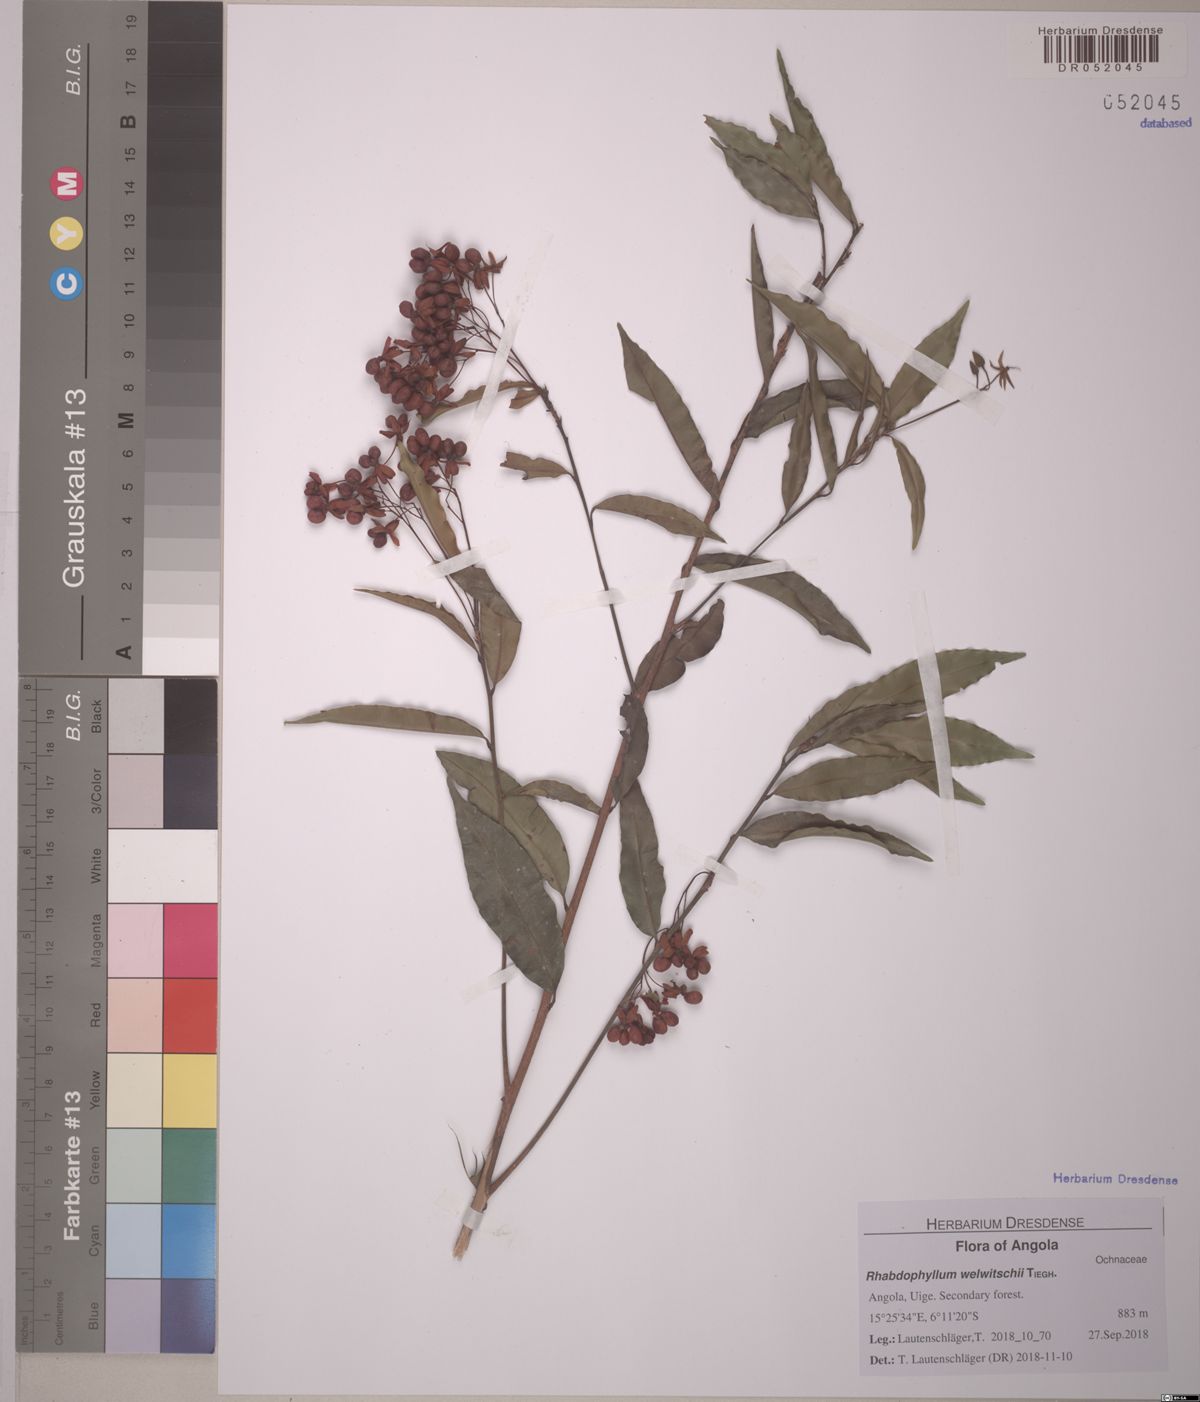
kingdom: Plantae
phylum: Tracheophyta
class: Magnoliopsida
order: Malpighiales
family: Ochnaceae
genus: Rhabdophyllum
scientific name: Rhabdophyllum welwitschii
